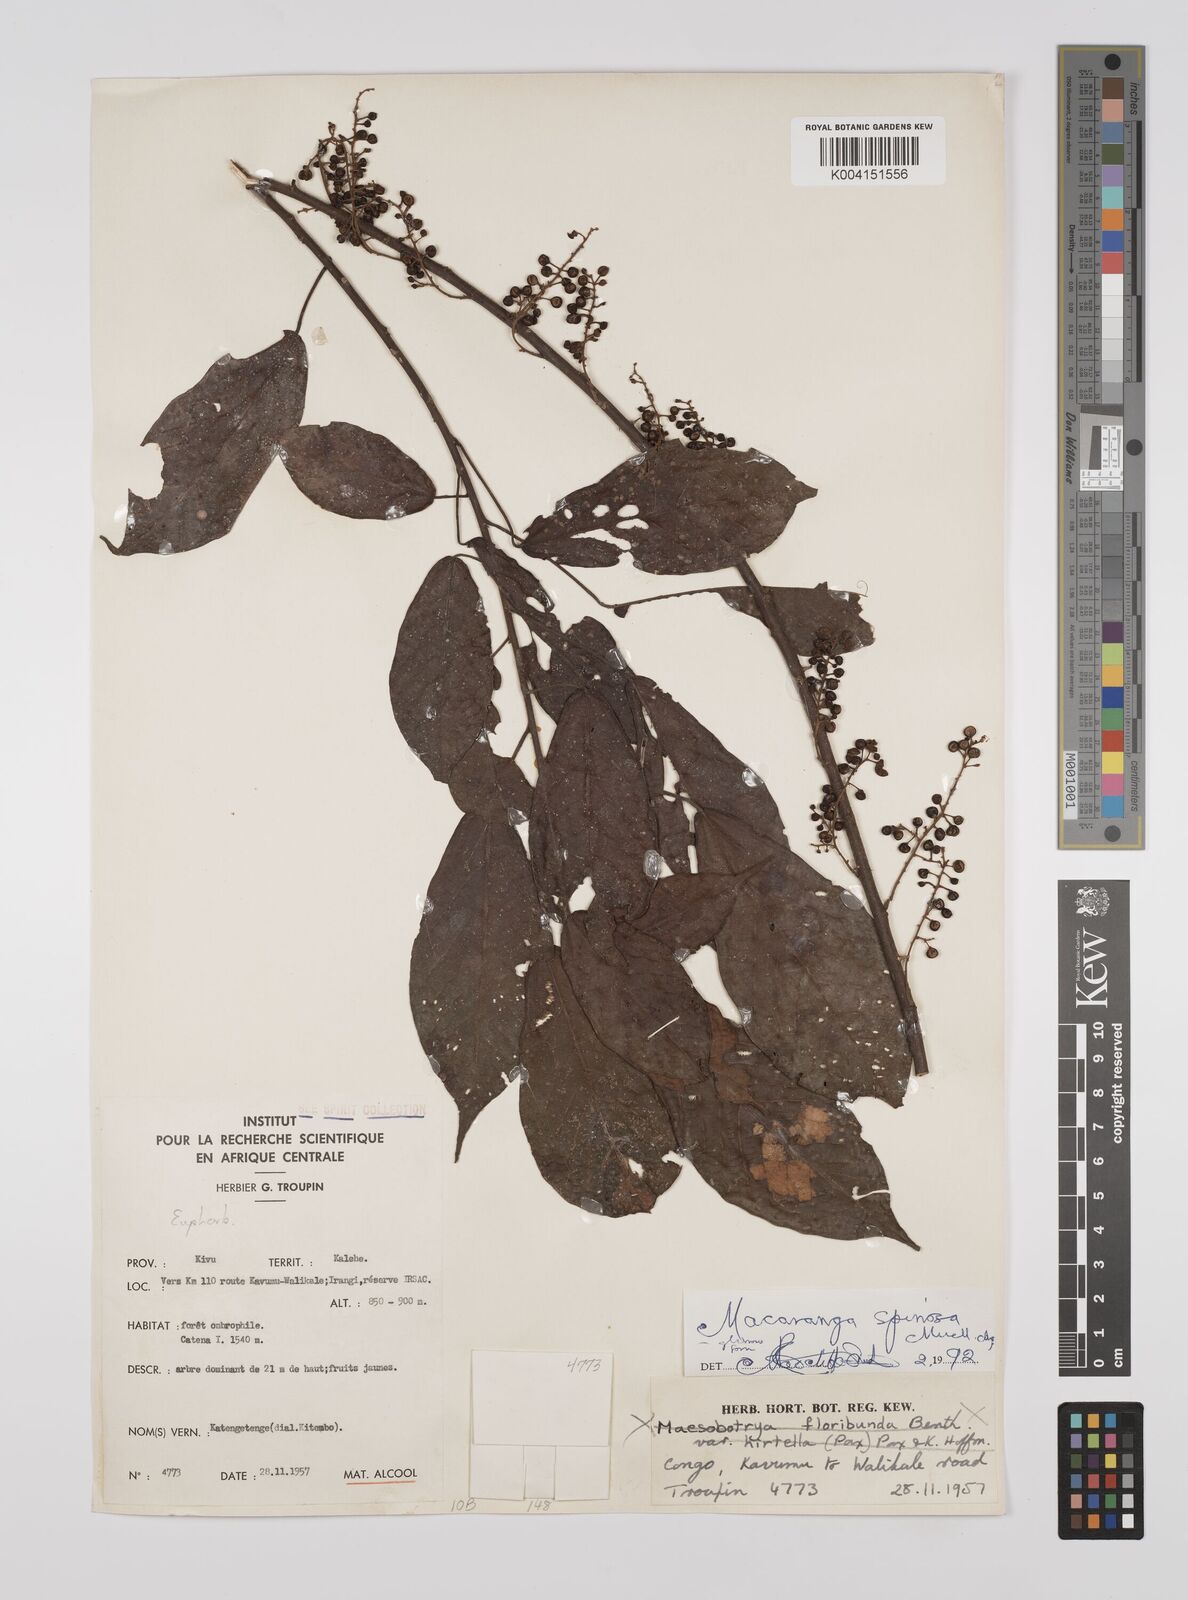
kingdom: Plantae
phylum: Tracheophyta
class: Magnoliopsida
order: Malpighiales
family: Euphorbiaceae
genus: Macaranga
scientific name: Macaranga spinosa
